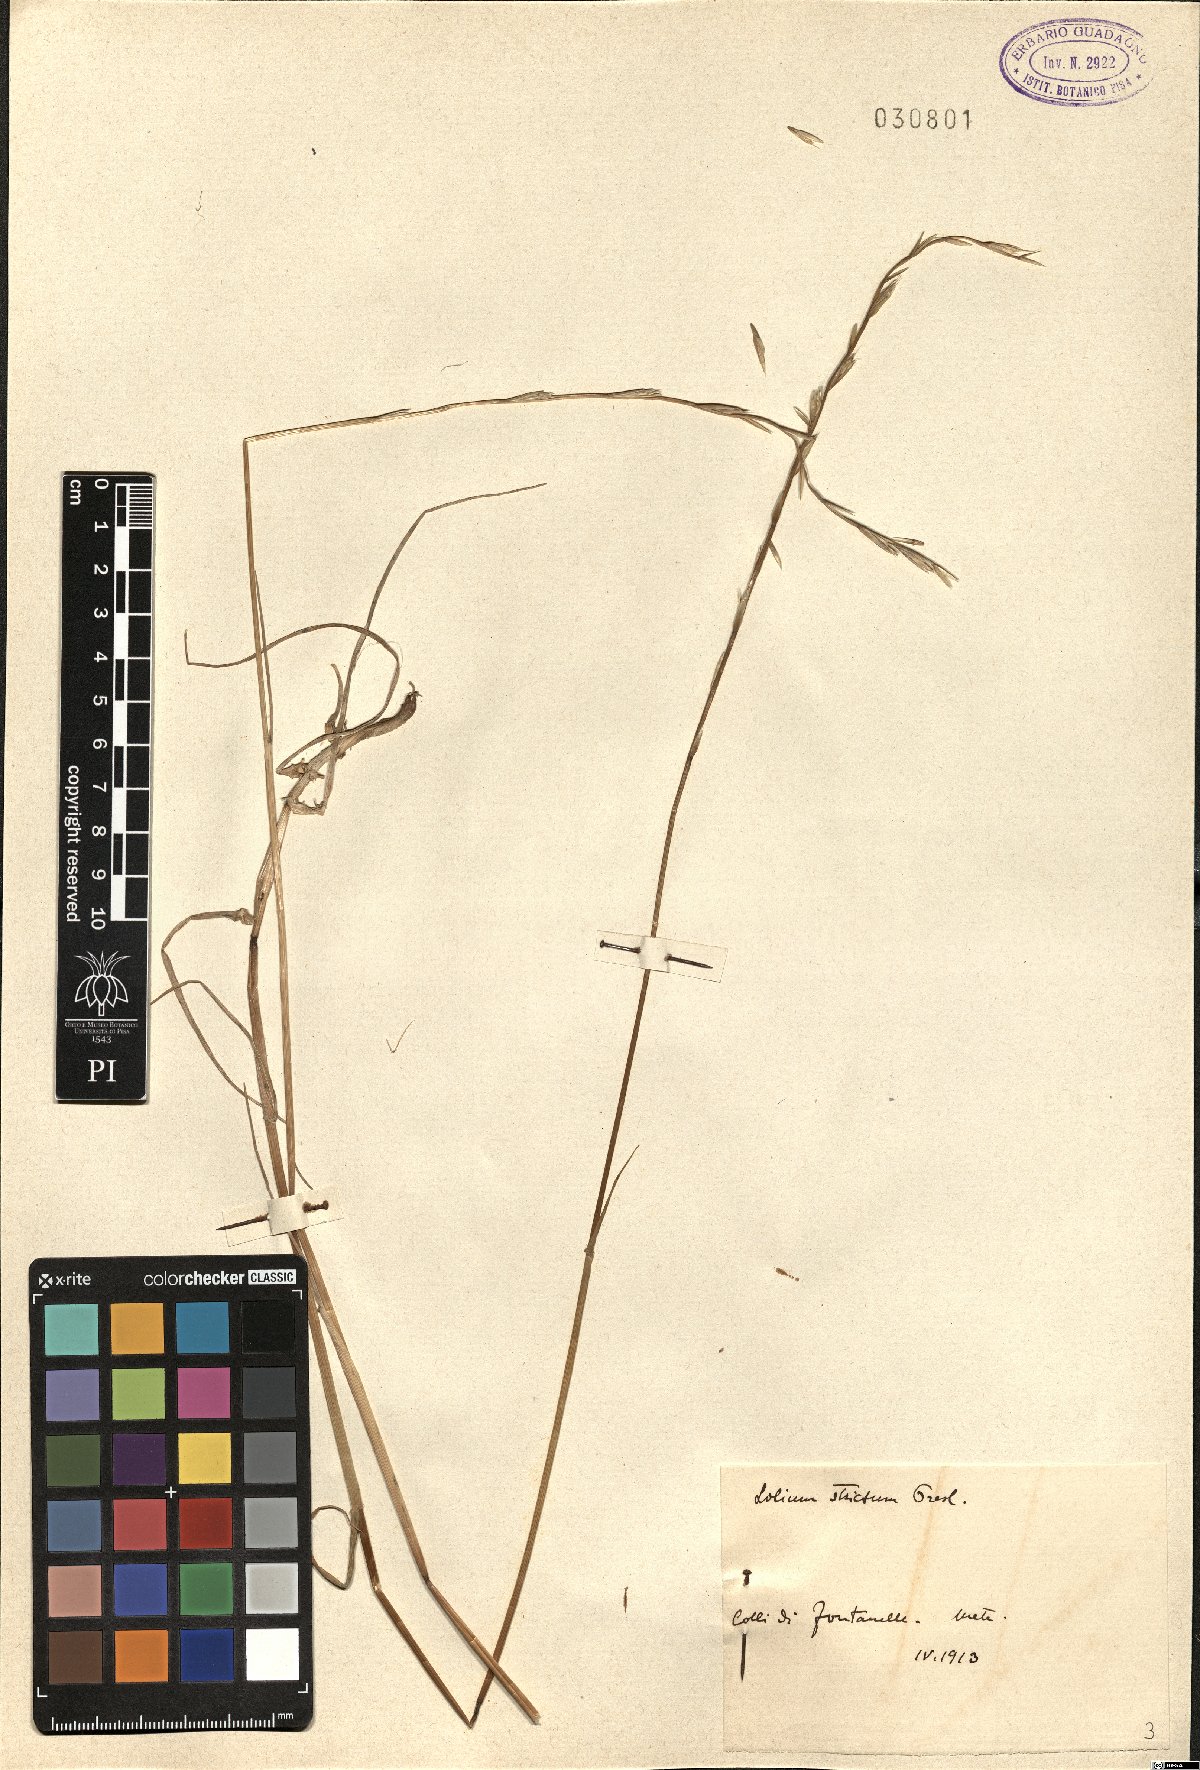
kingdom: Plantae
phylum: Tracheophyta
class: Liliopsida
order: Poales
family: Poaceae
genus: Lolium
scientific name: Lolium rigidum
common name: Wimmera ryegrass
